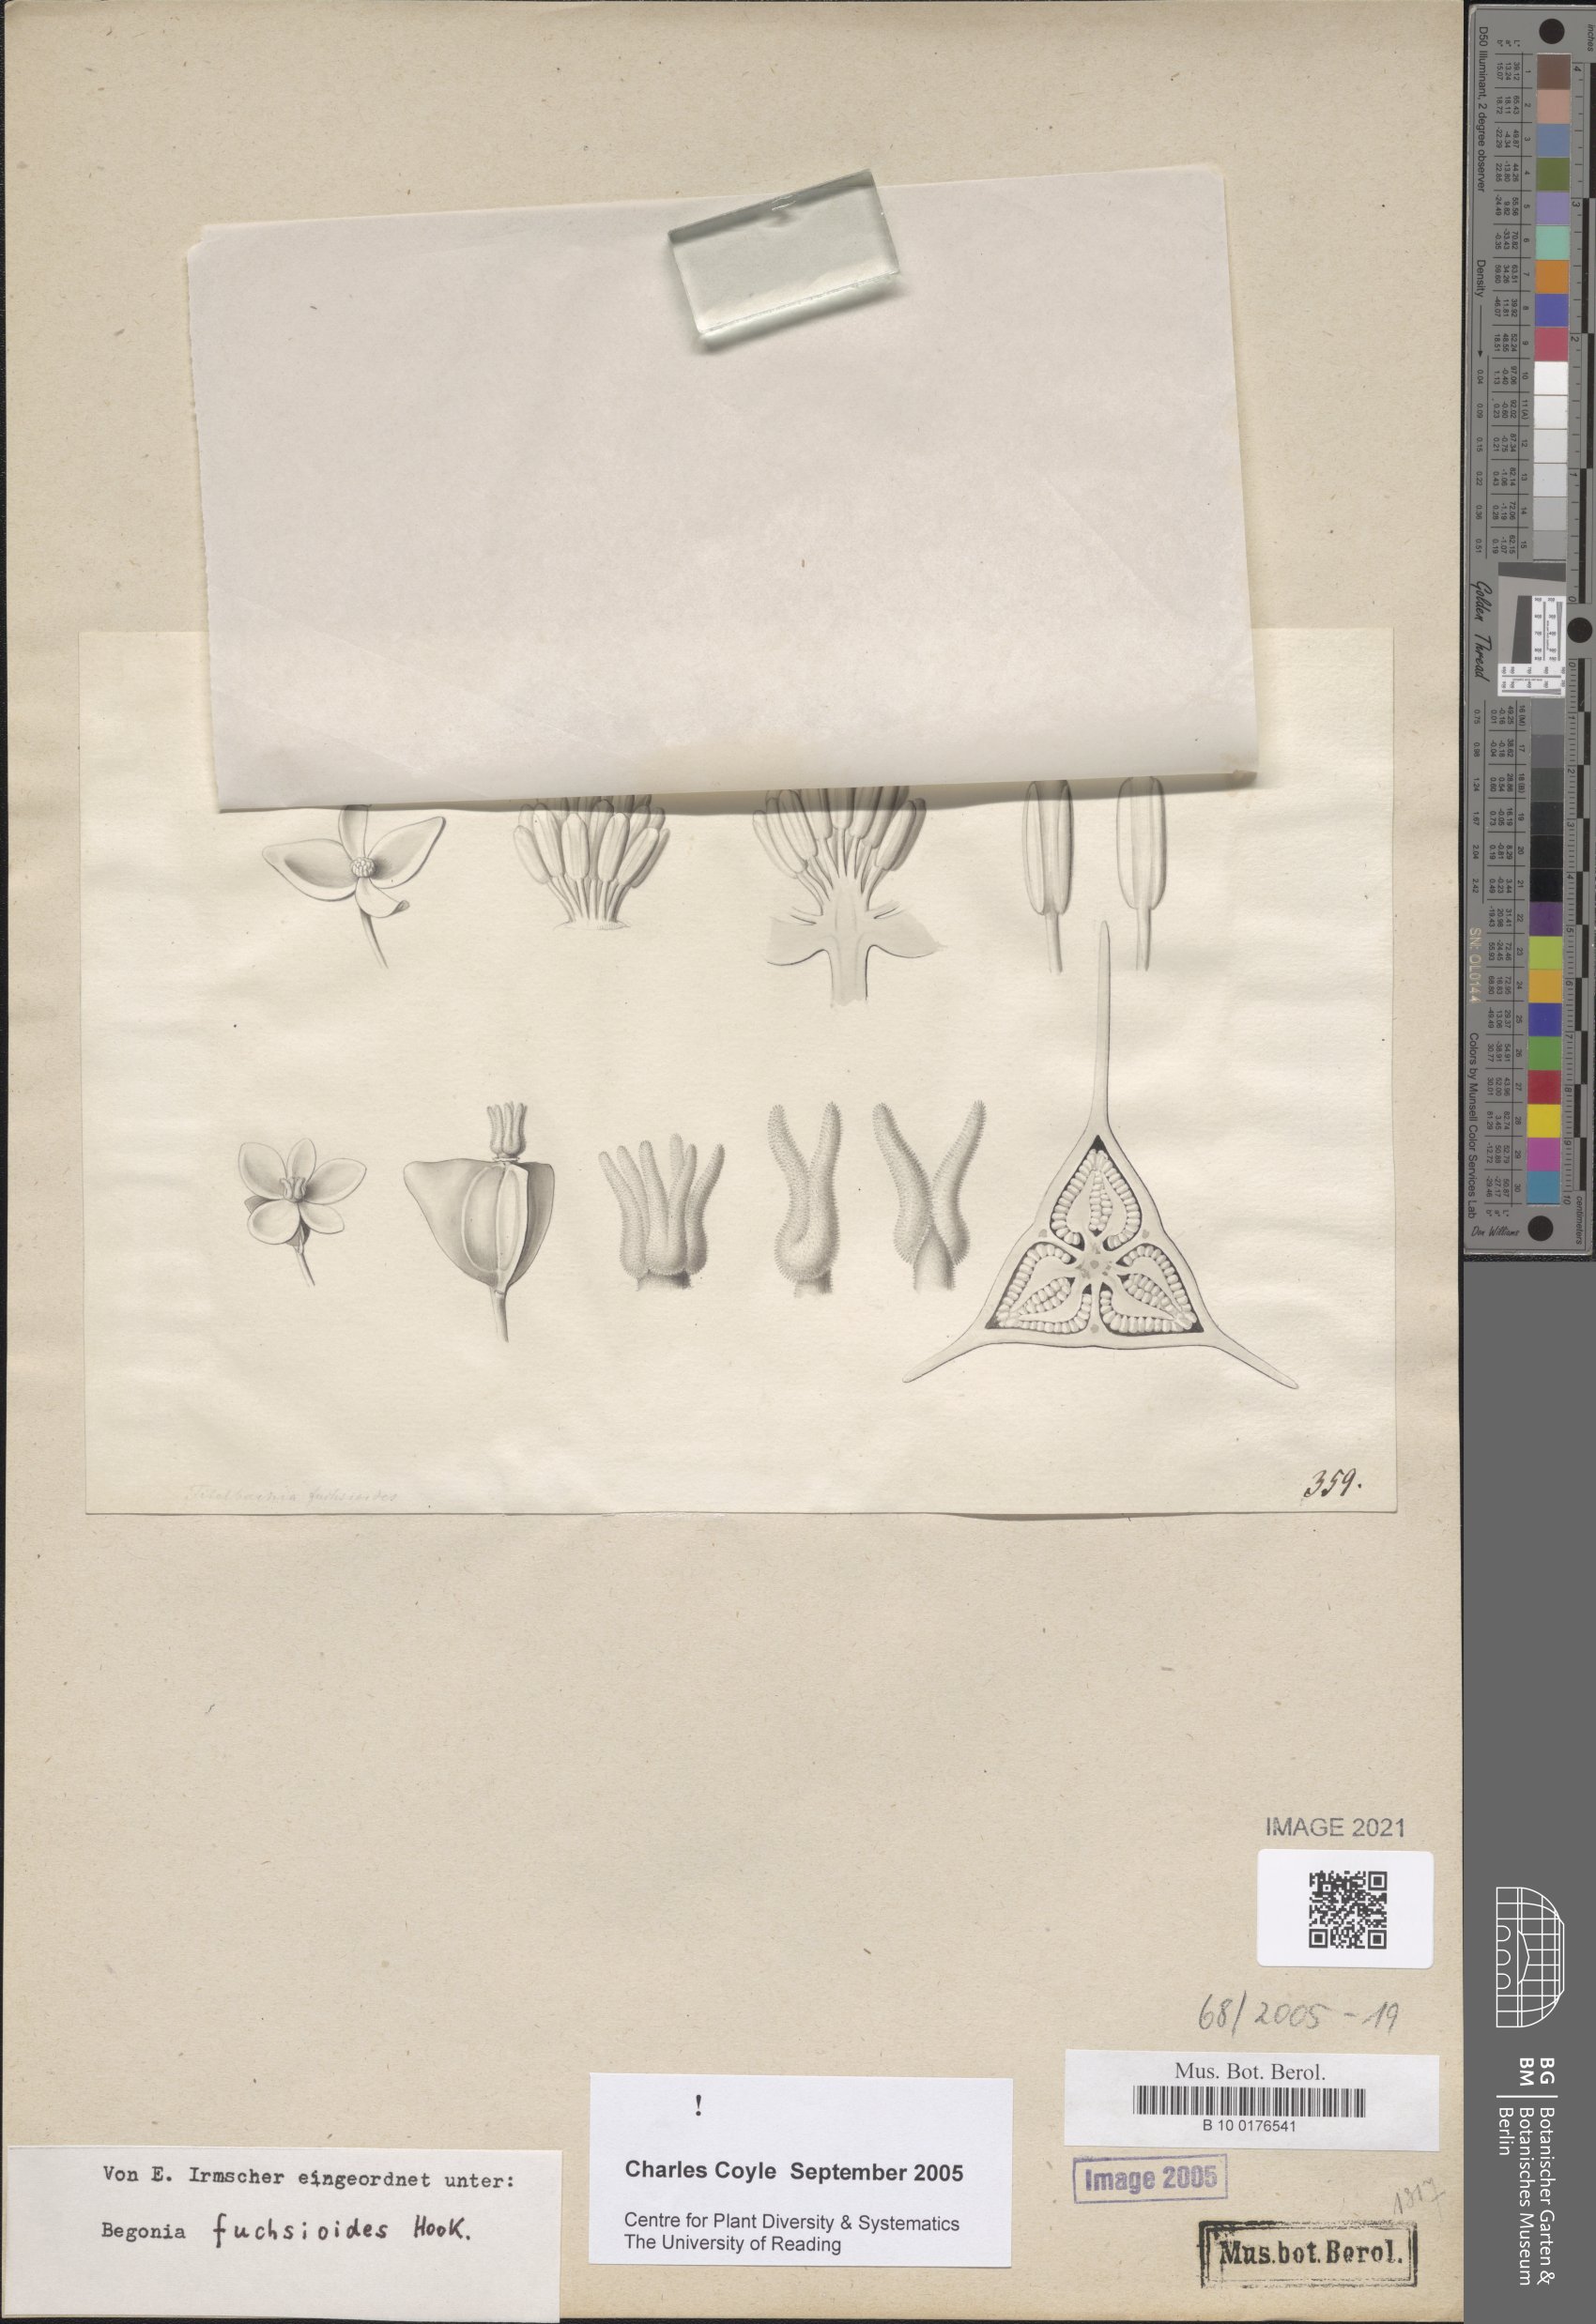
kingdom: Plantae
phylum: Tracheophyta
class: Magnoliopsida
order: Cucurbitales
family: Begoniaceae
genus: Begonia
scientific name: Begonia fuchsioides
